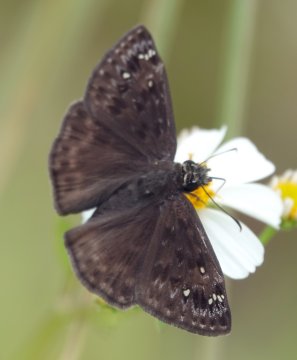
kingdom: Animalia
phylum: Arthropoda
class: Insecta
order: Lepidoptera
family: Hesperiidae
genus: Erynnis
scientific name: Erynnis zarucco
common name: Zarucco Duskywing
